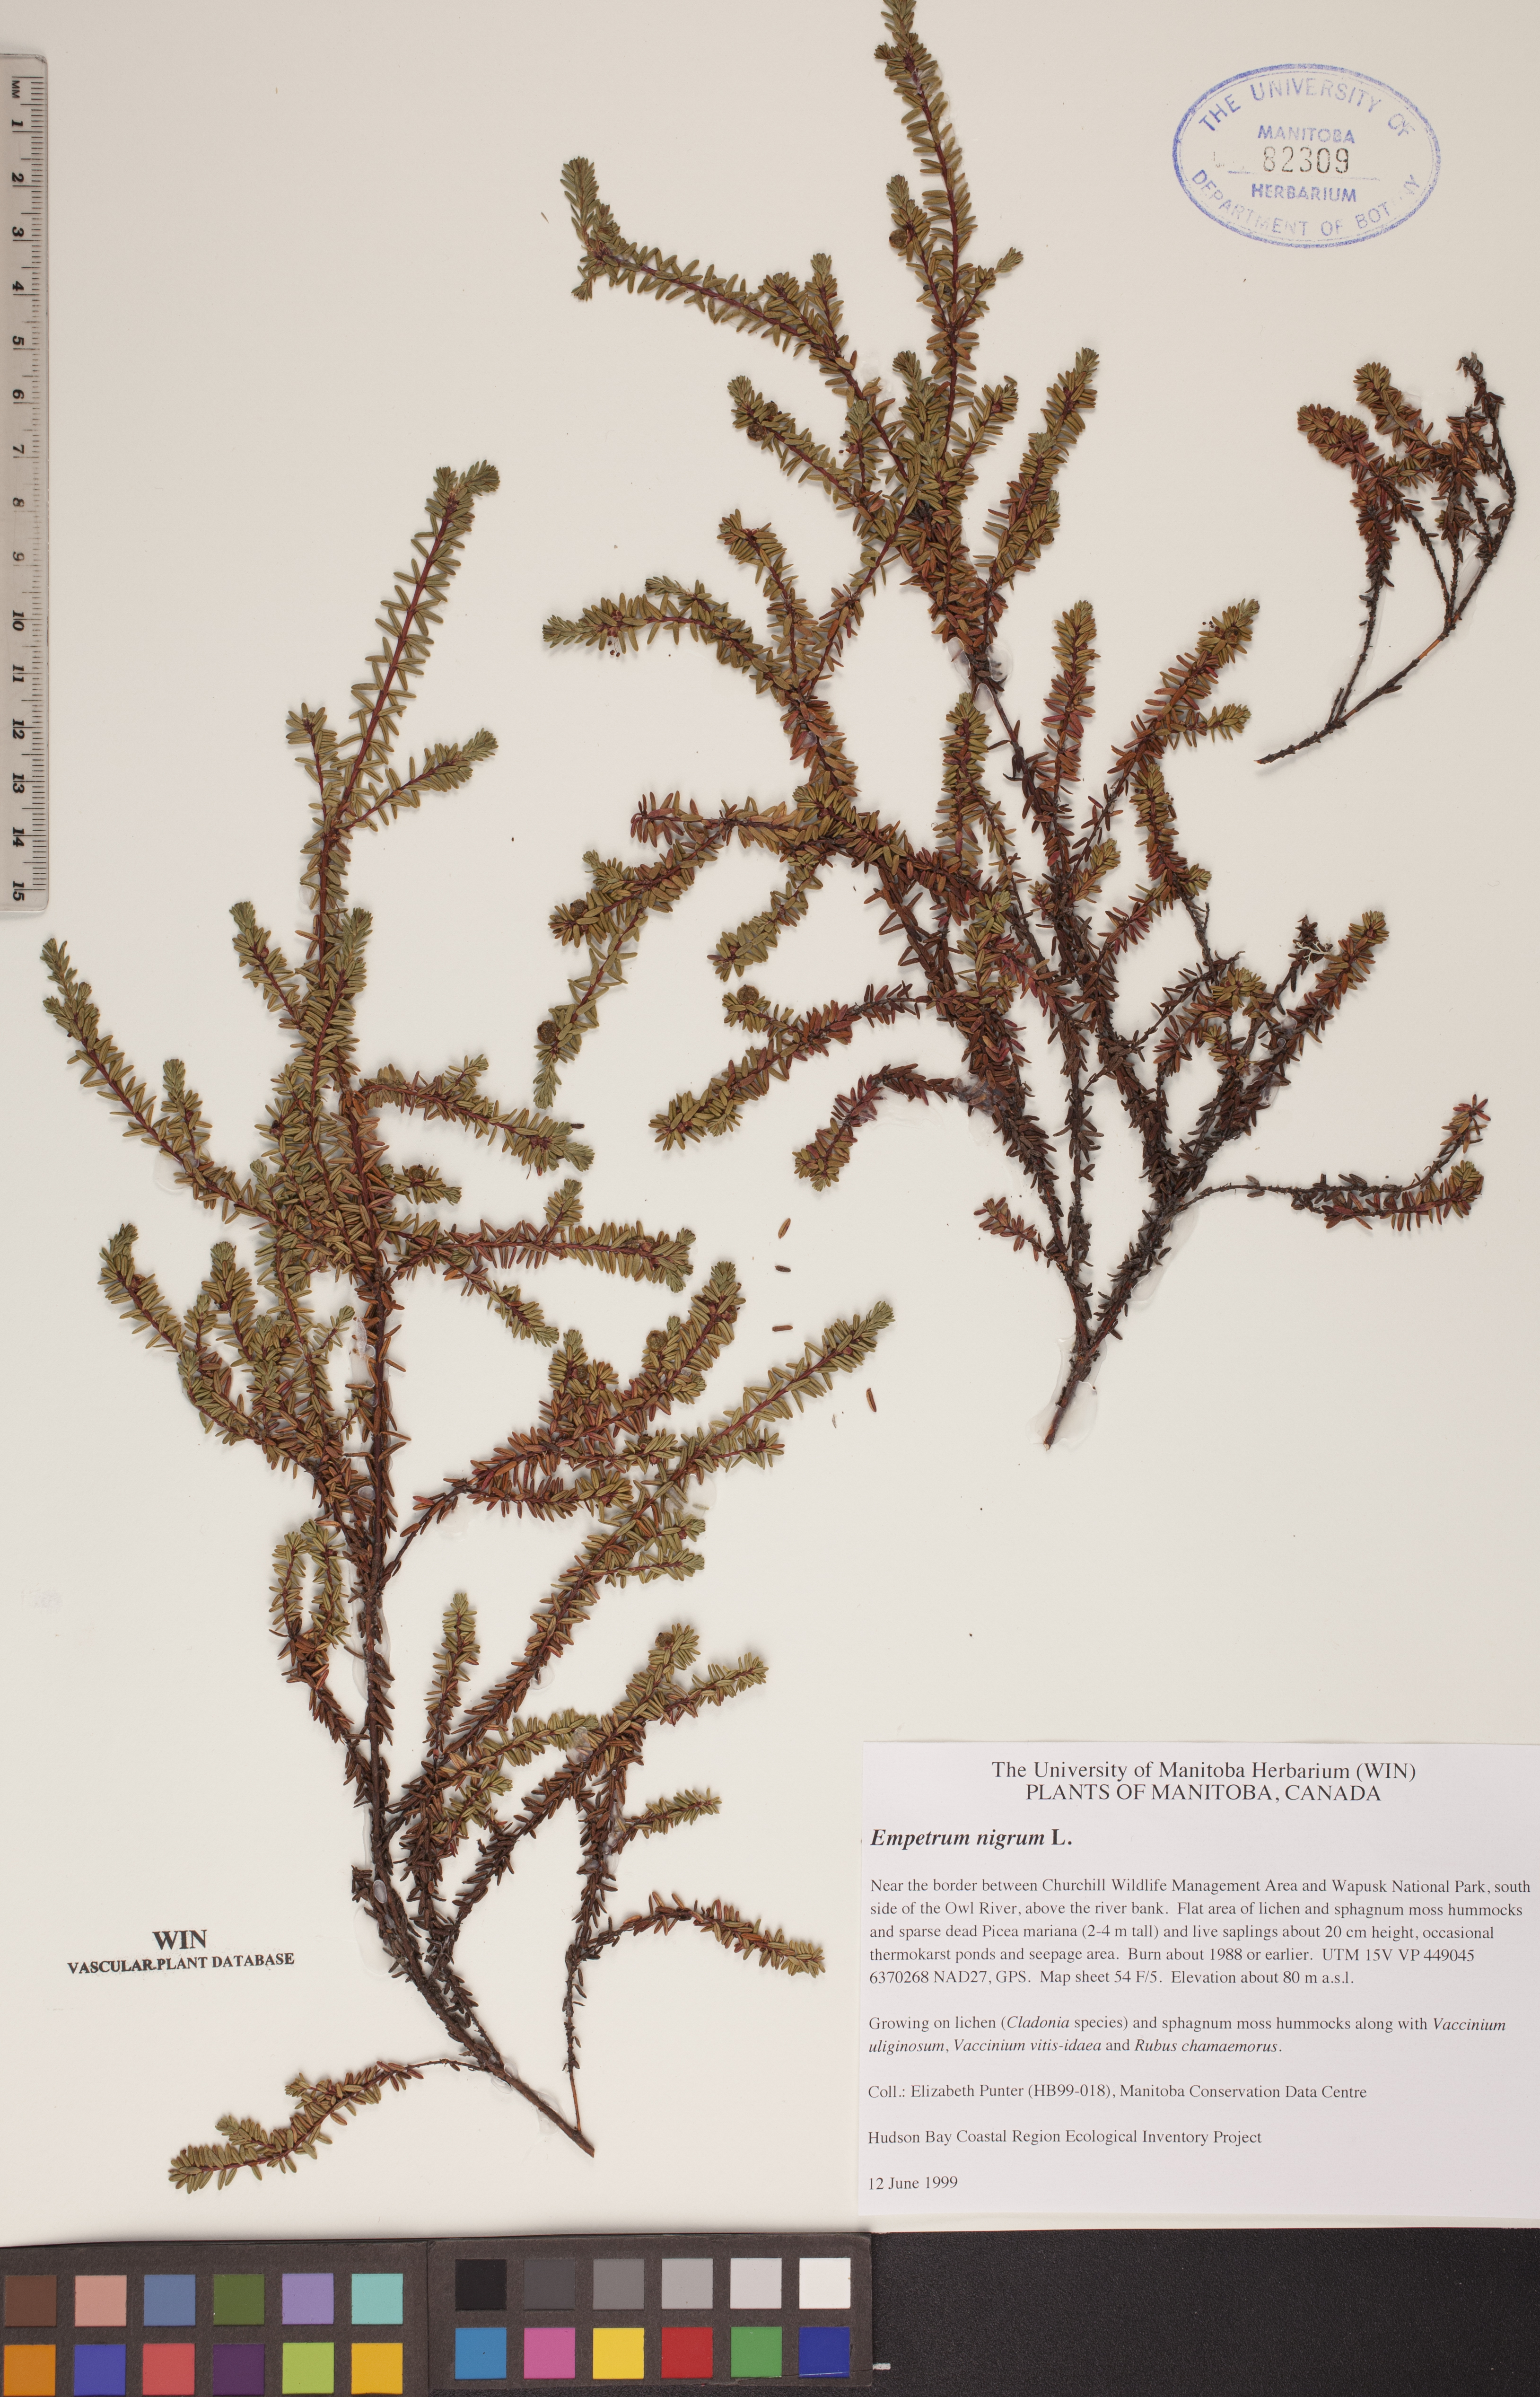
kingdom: Plantae
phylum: Tracheophyta
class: Magnoliopsida
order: Ericales
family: Ericaceae
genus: Empetrum
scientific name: Empetrum nigrum
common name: Black crowberry
